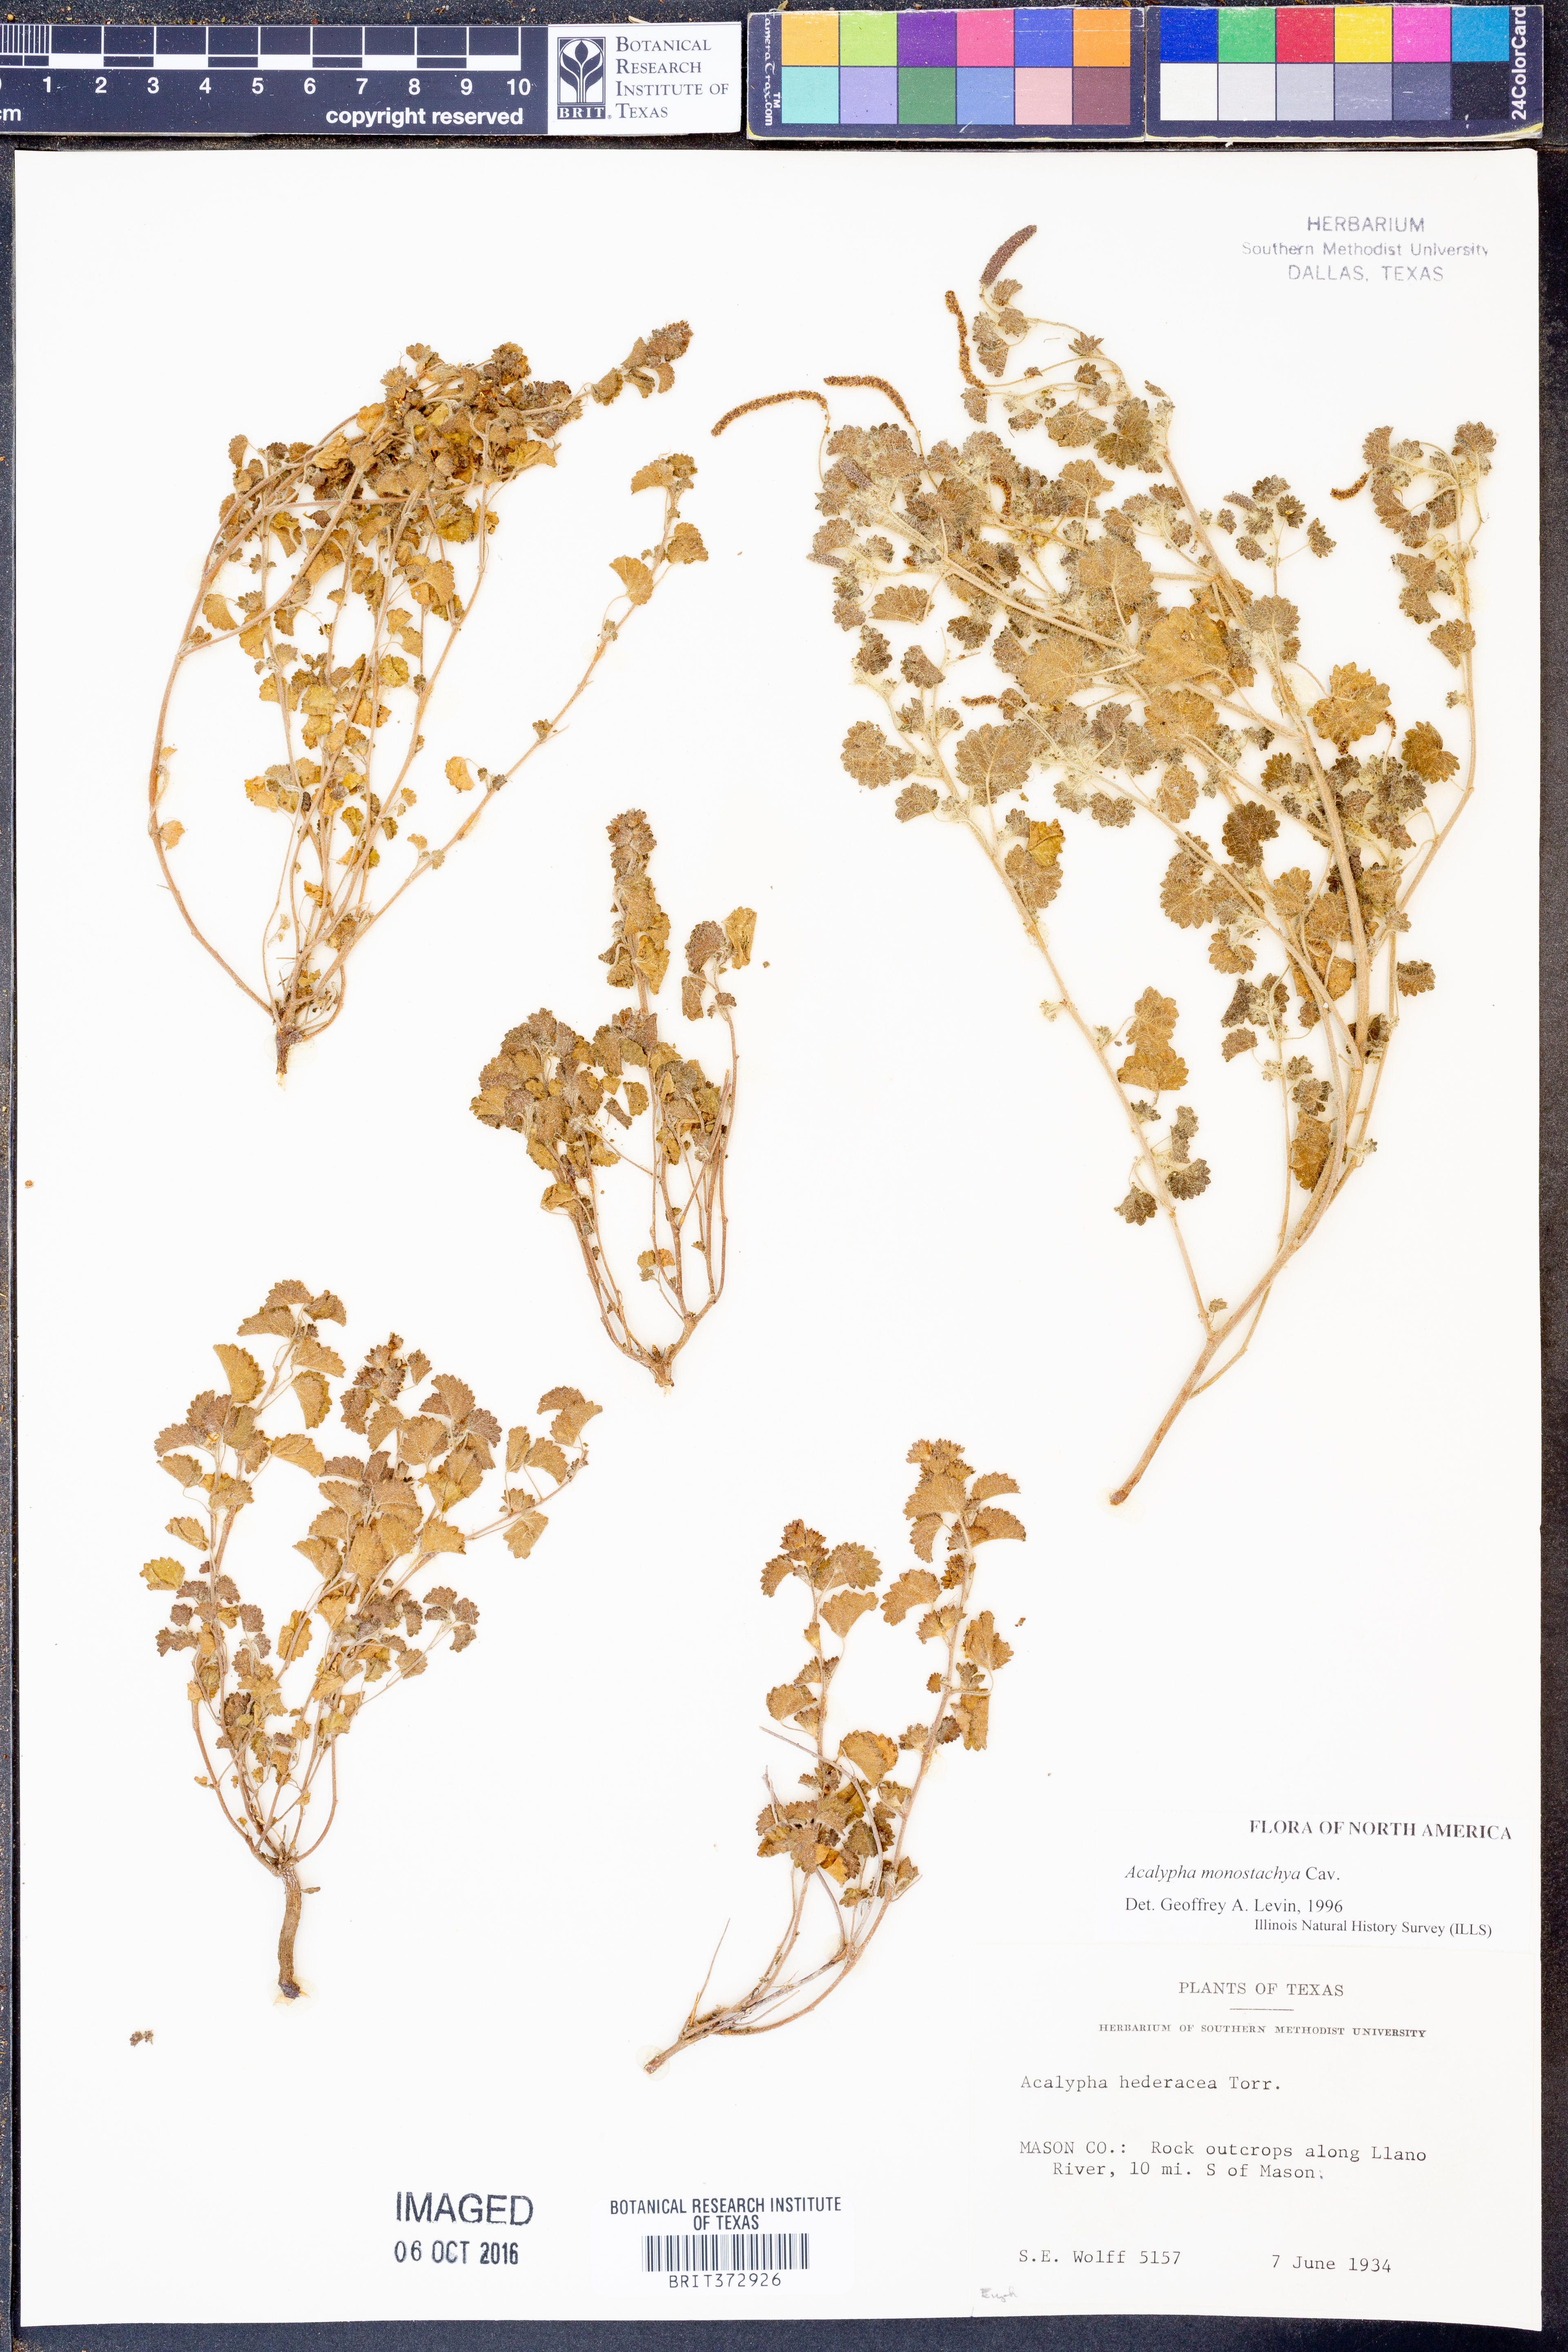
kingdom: Plantae
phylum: Tracheophyta
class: Magnoliopsida
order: Malpighiales
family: Euphorbiaceae
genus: Acalypha
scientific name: Acalypha monostachya
